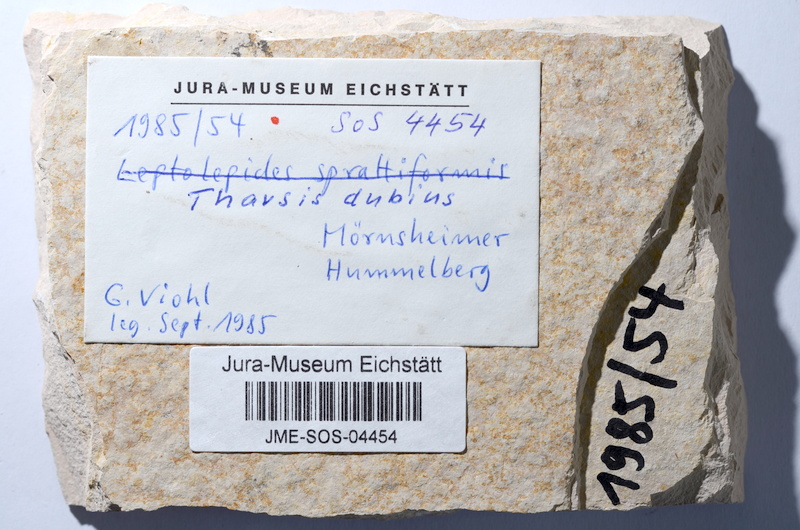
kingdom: Animalia
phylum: Chordata
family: Ascalaboidae
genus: Tharsis
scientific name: Tharsis dubius
